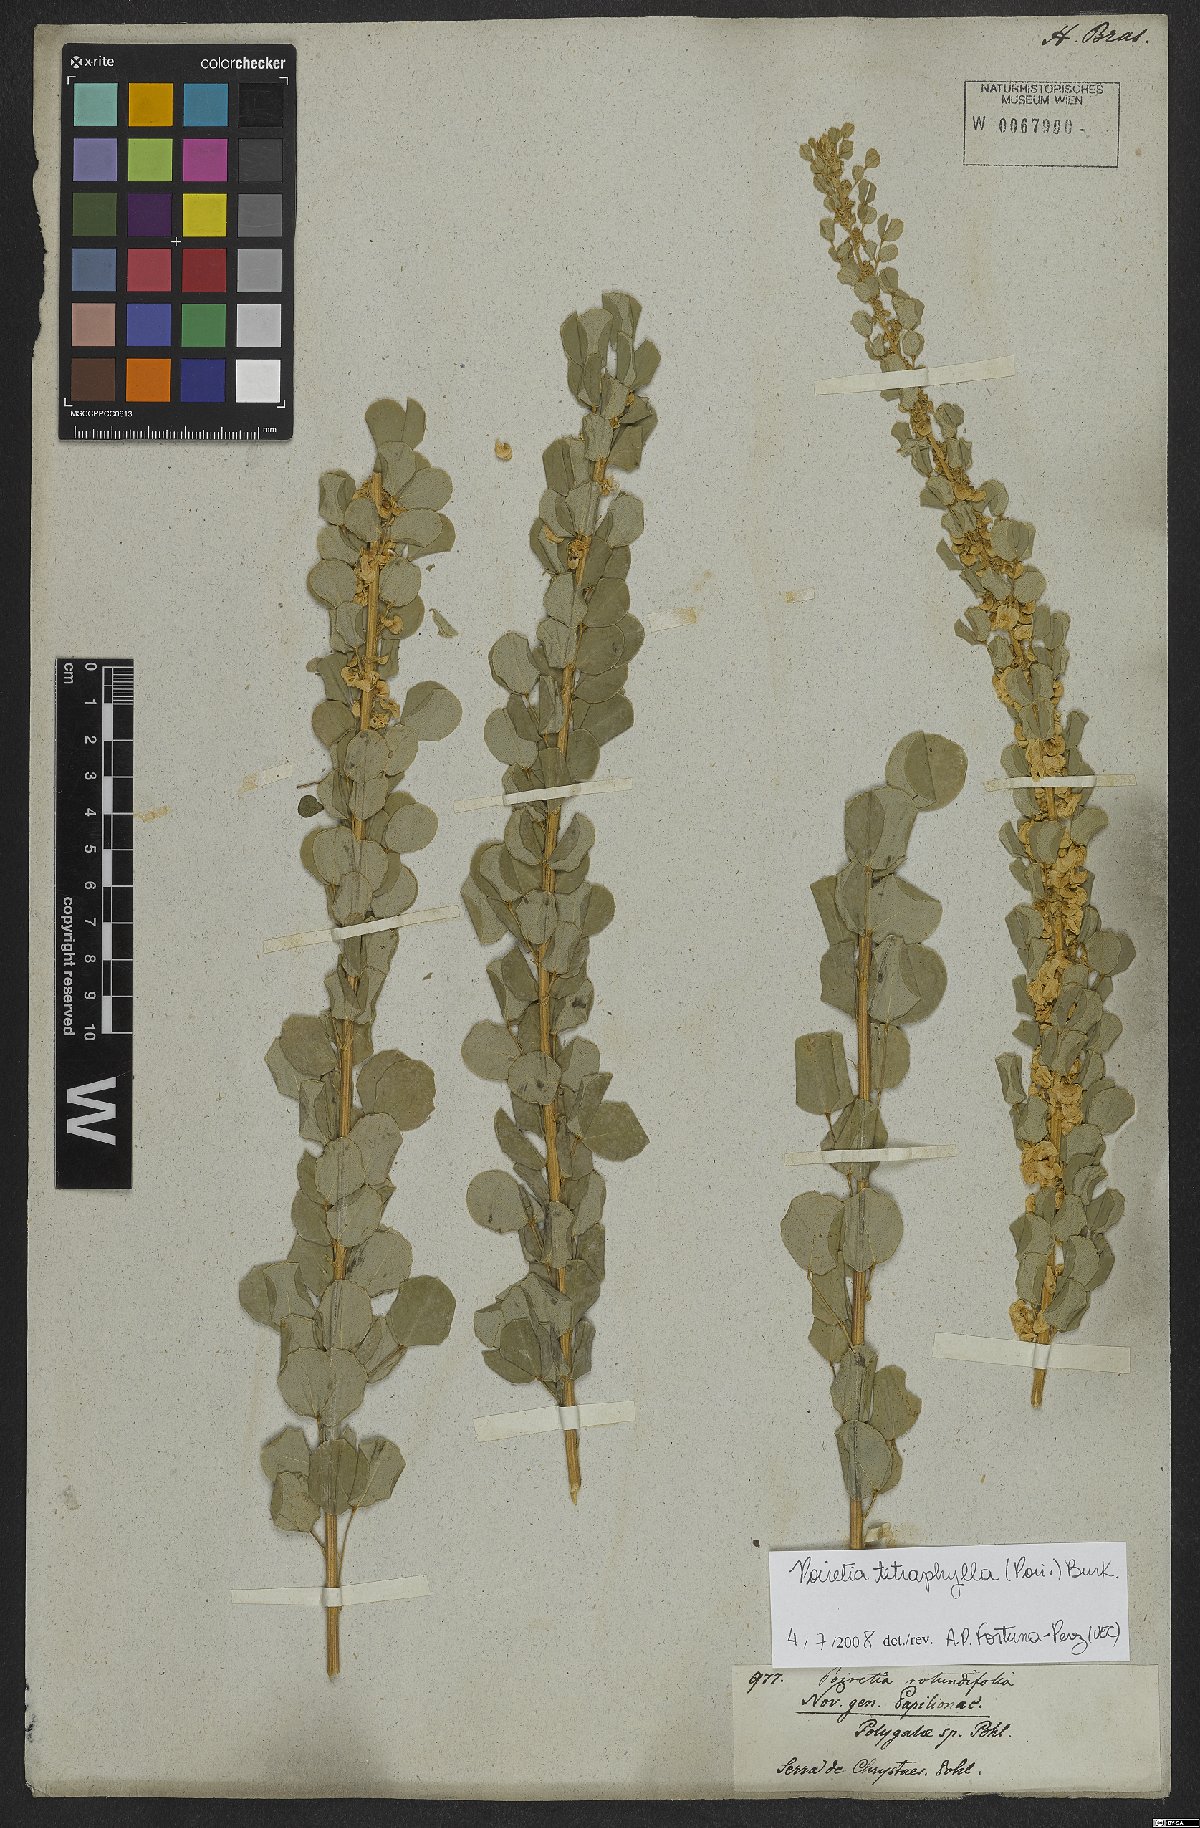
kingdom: Plantae
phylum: Tracheophyta
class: Magnoliopsida
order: Fabales
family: Fabaceae
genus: Poiretia
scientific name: Poiretia tetraphylla
